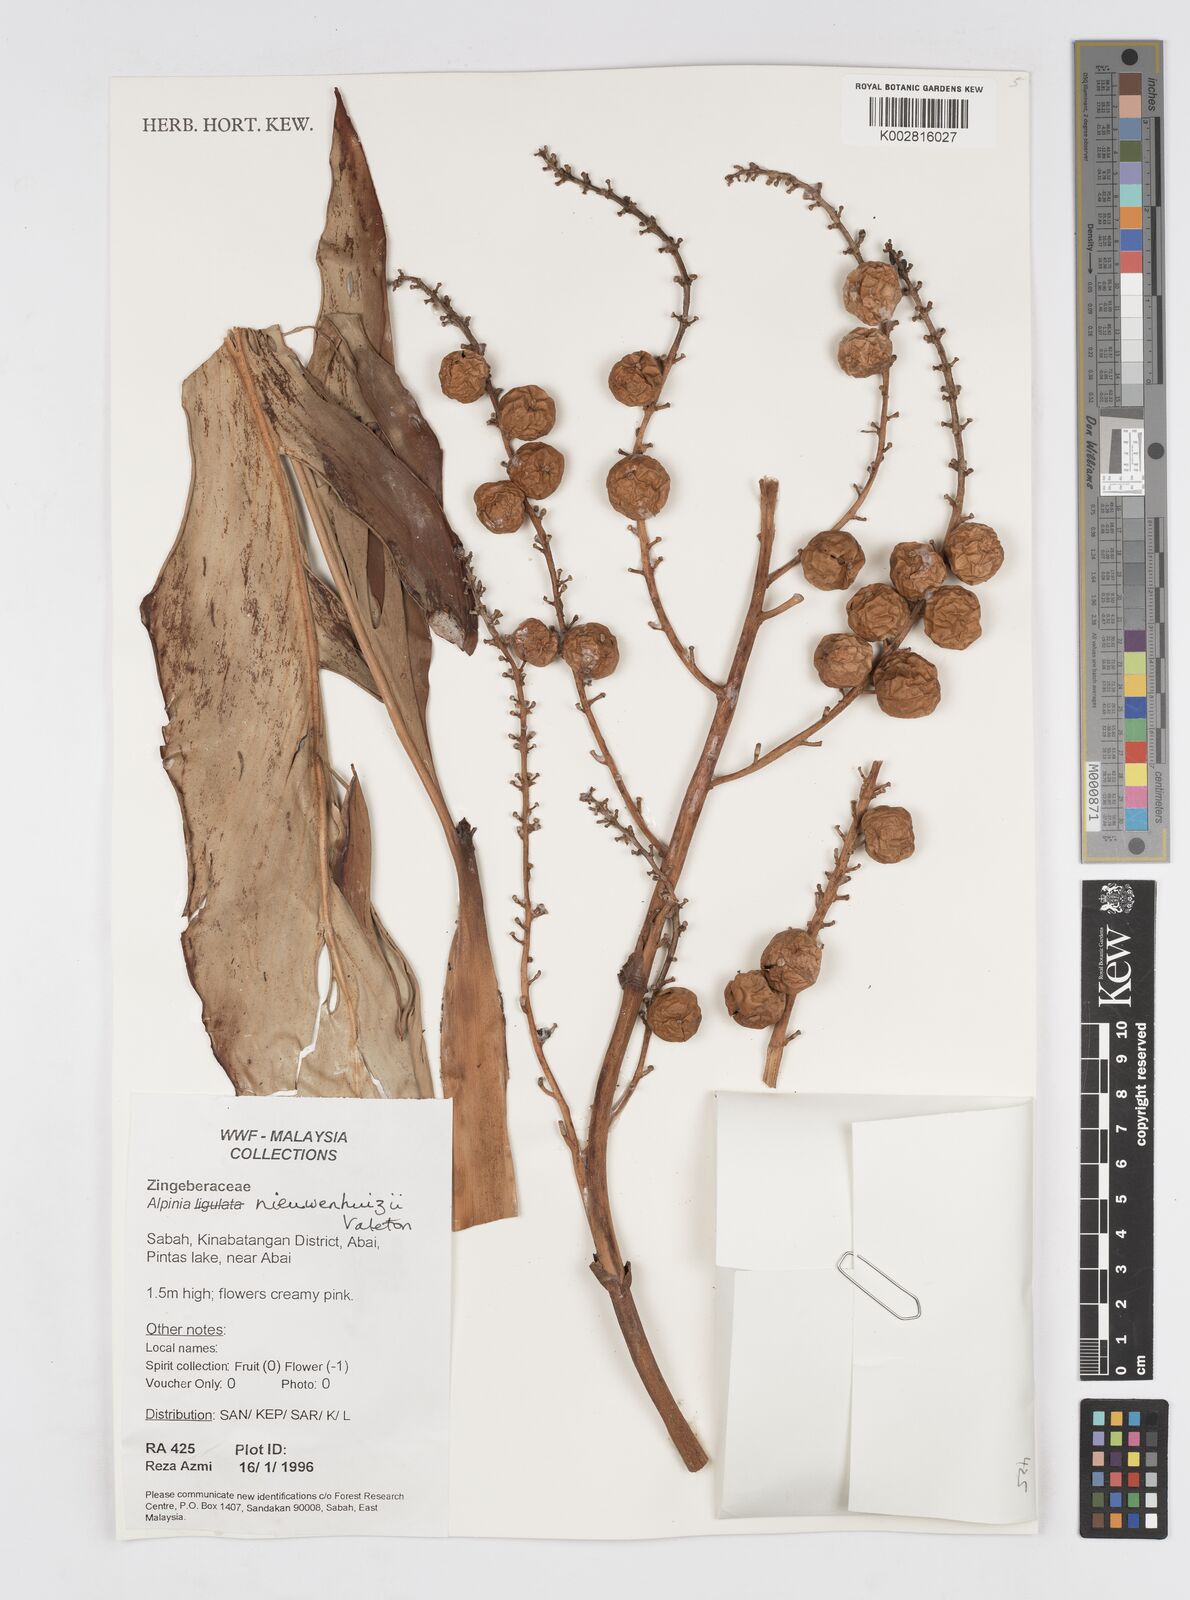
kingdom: Plantae
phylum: Tracheophyta
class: Liliopsida
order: Zingiberales
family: Zingiberaceae
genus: Alpinia
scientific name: Alpinia nieuwenhuizii
